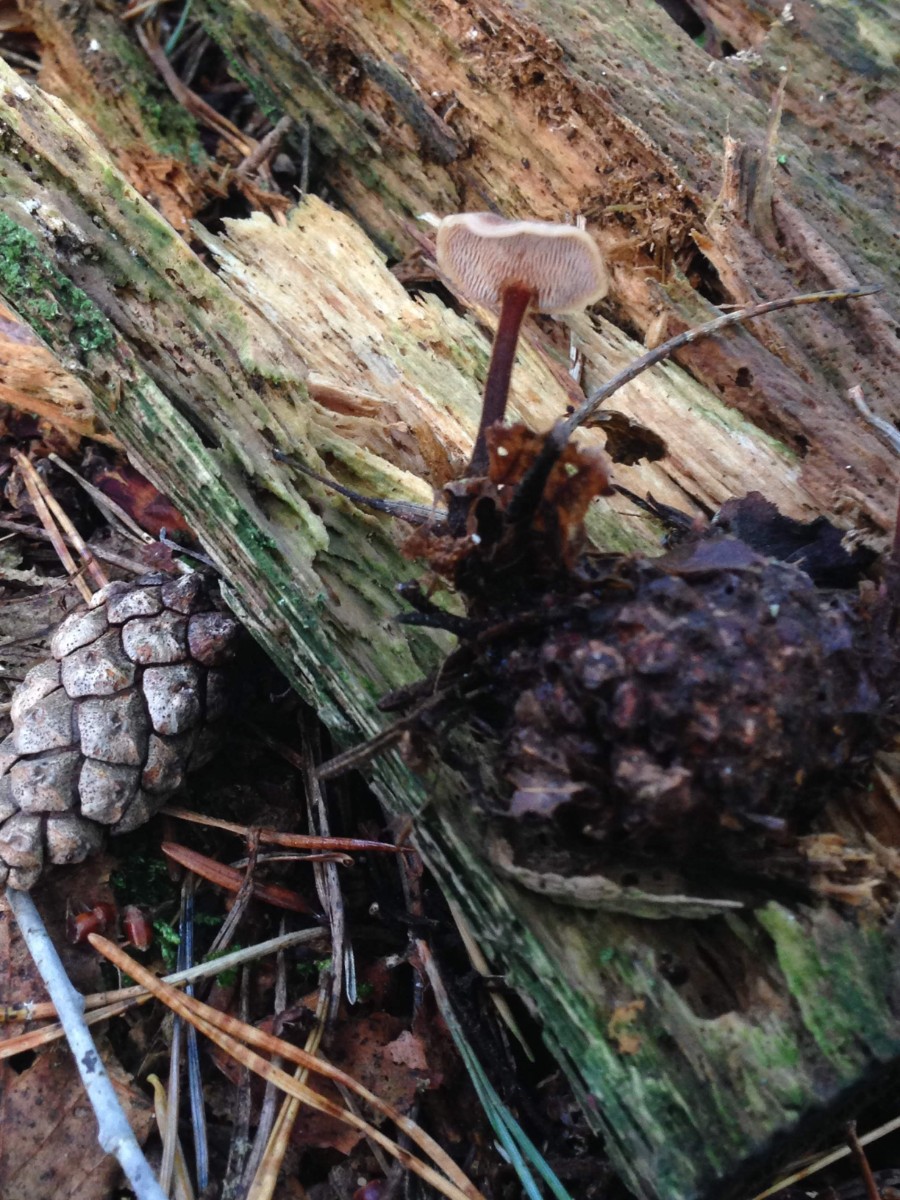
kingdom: Fungi
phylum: Basidiomycota
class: Agaricomycetes
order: Russulales
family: Auriscalpiaceae
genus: Auriscalpium
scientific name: Auriscalpium vulgare
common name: koglepigsvamp
